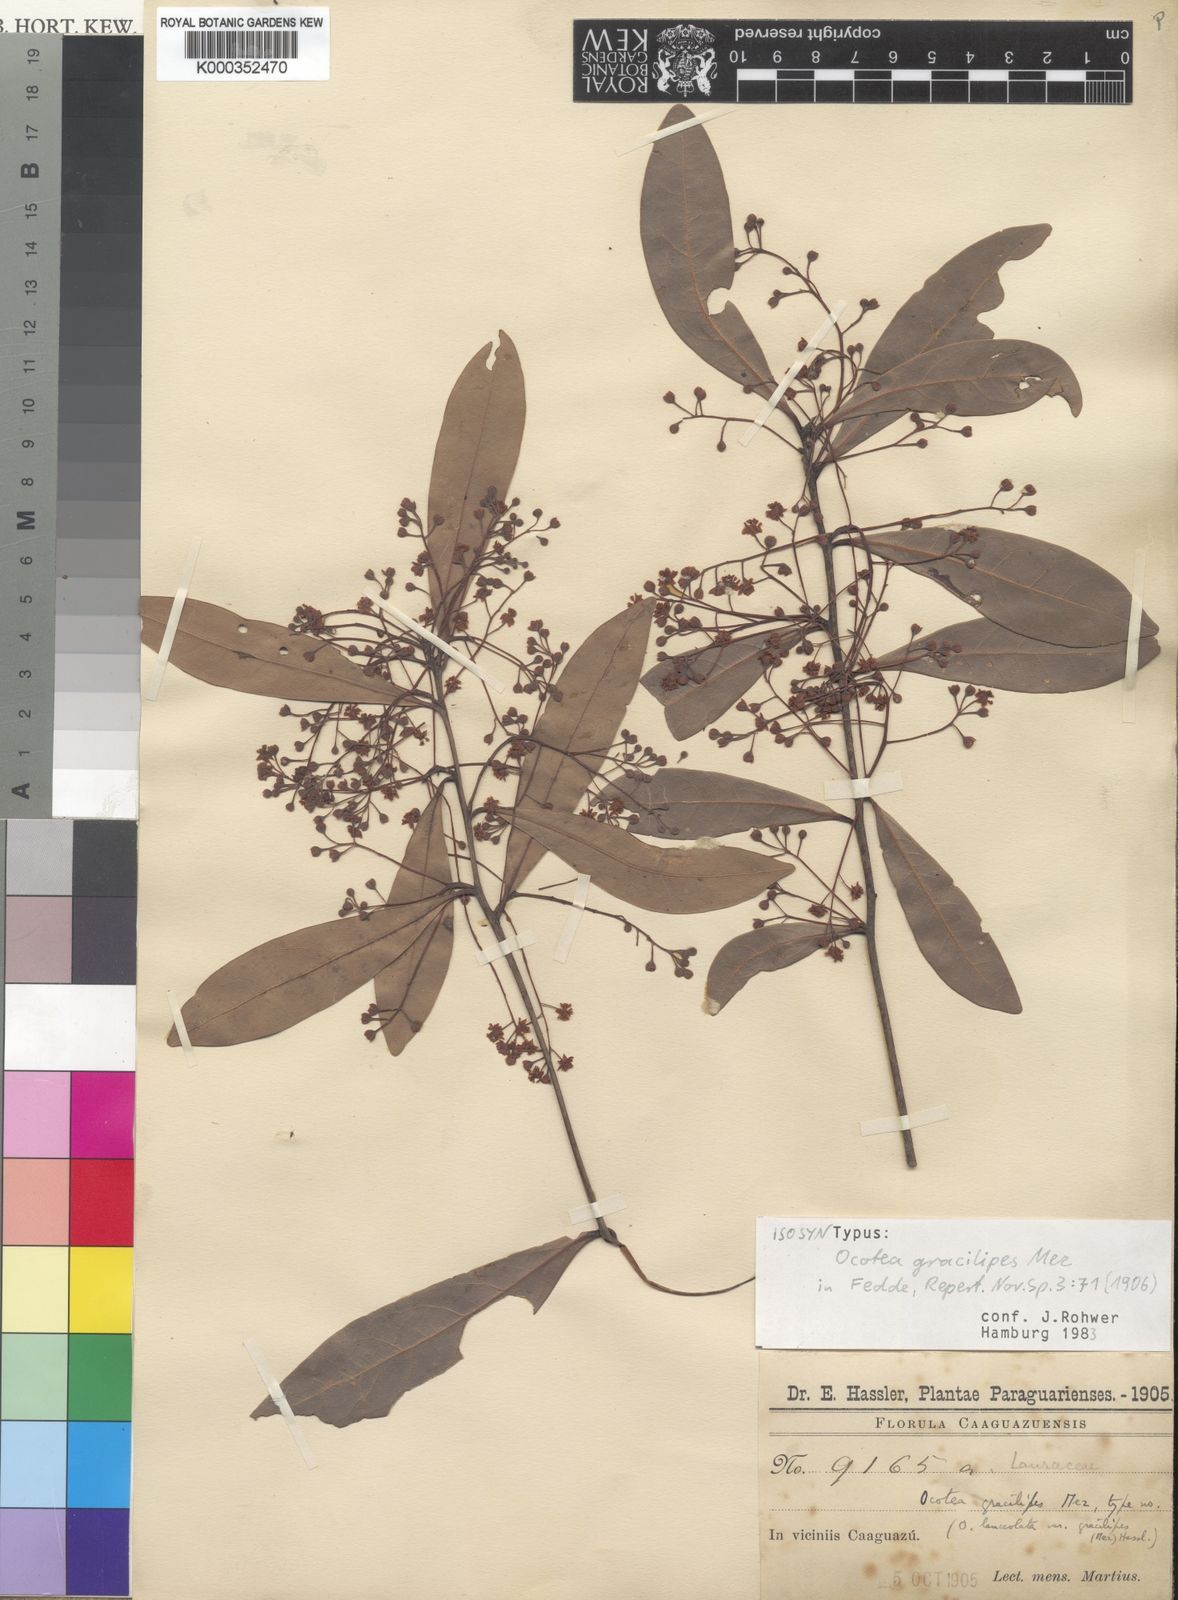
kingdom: Plantae
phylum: Tracheophyta
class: Magnoliopsida
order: Laurales
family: Lauraceae
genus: Ocotea
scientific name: Ocotea lancifolia
